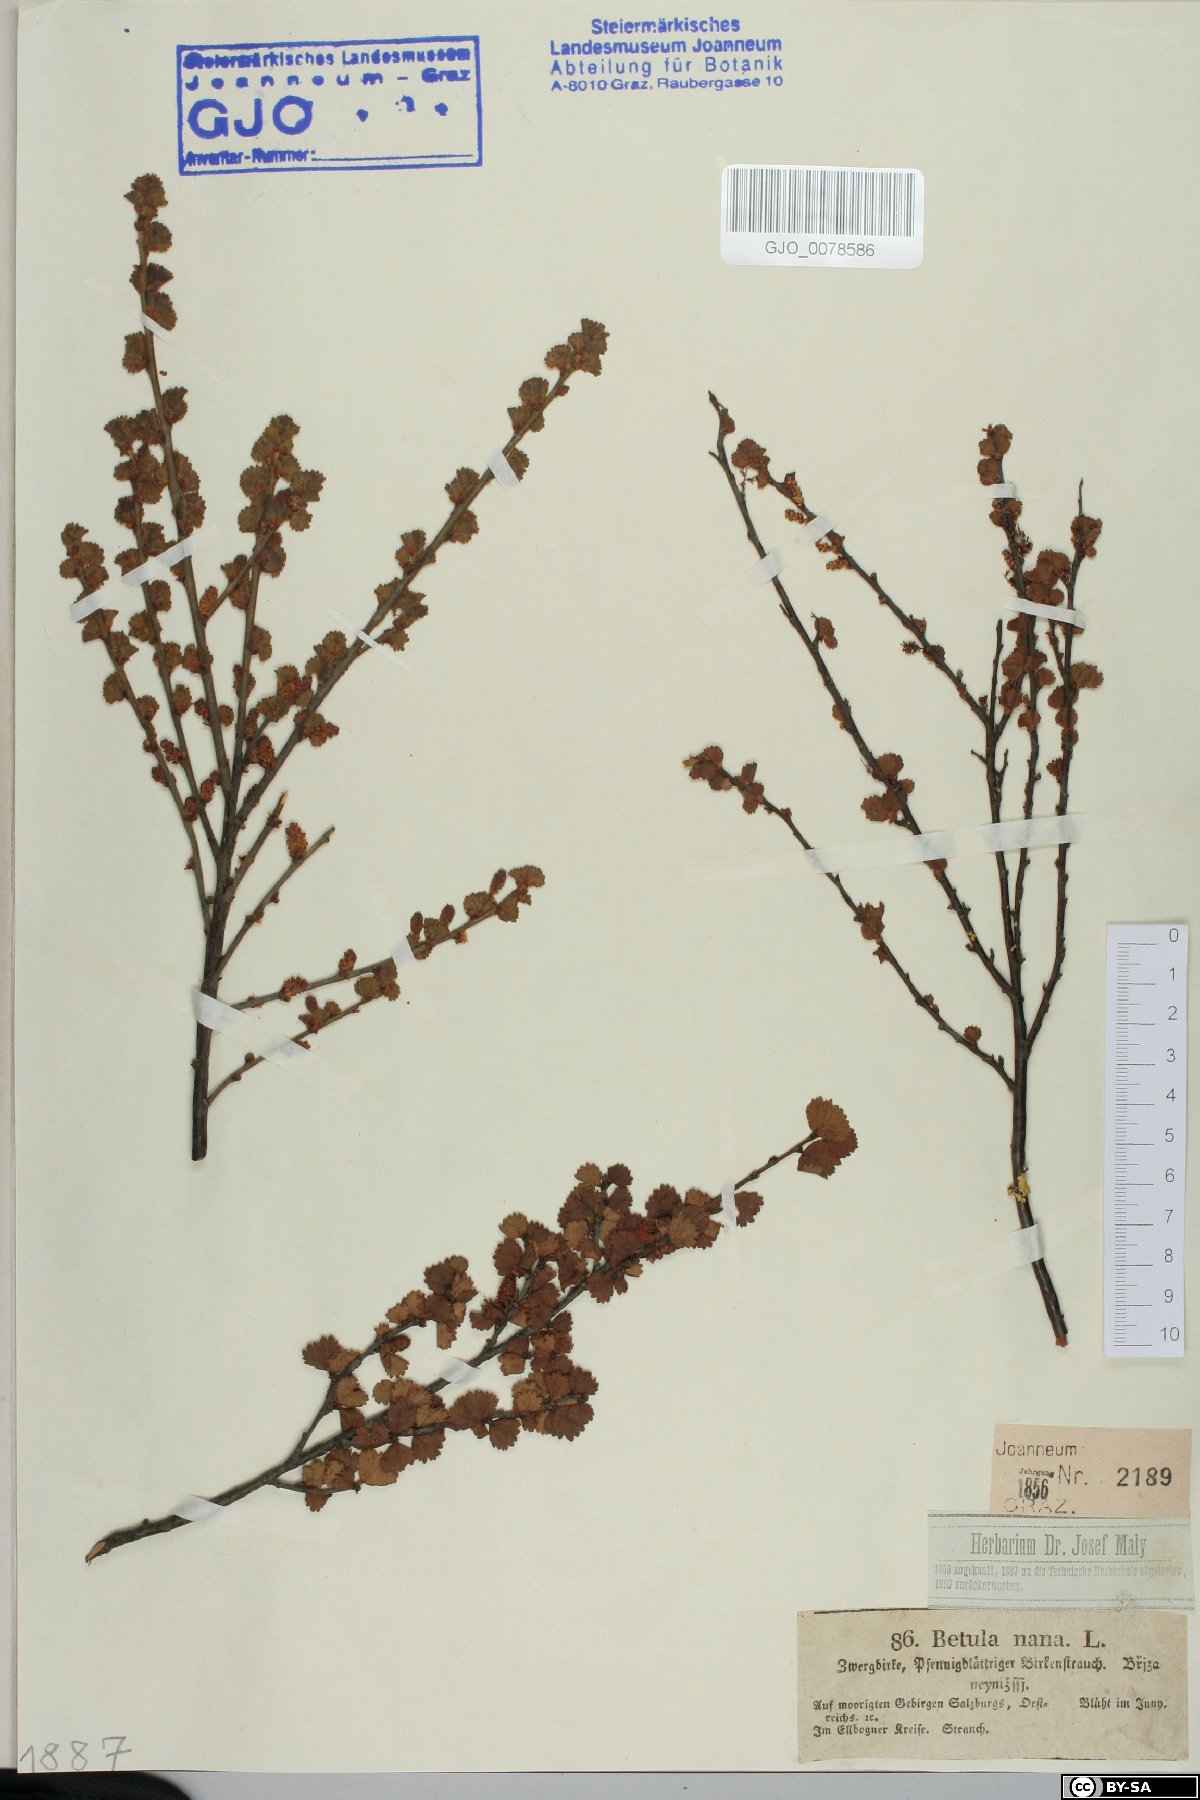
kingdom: Plantae
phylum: Tracheophyta
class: Magnoliopsida
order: Fagales
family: Betulaceae
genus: Betula
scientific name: Betula nana
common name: Arctic dwarf birch
